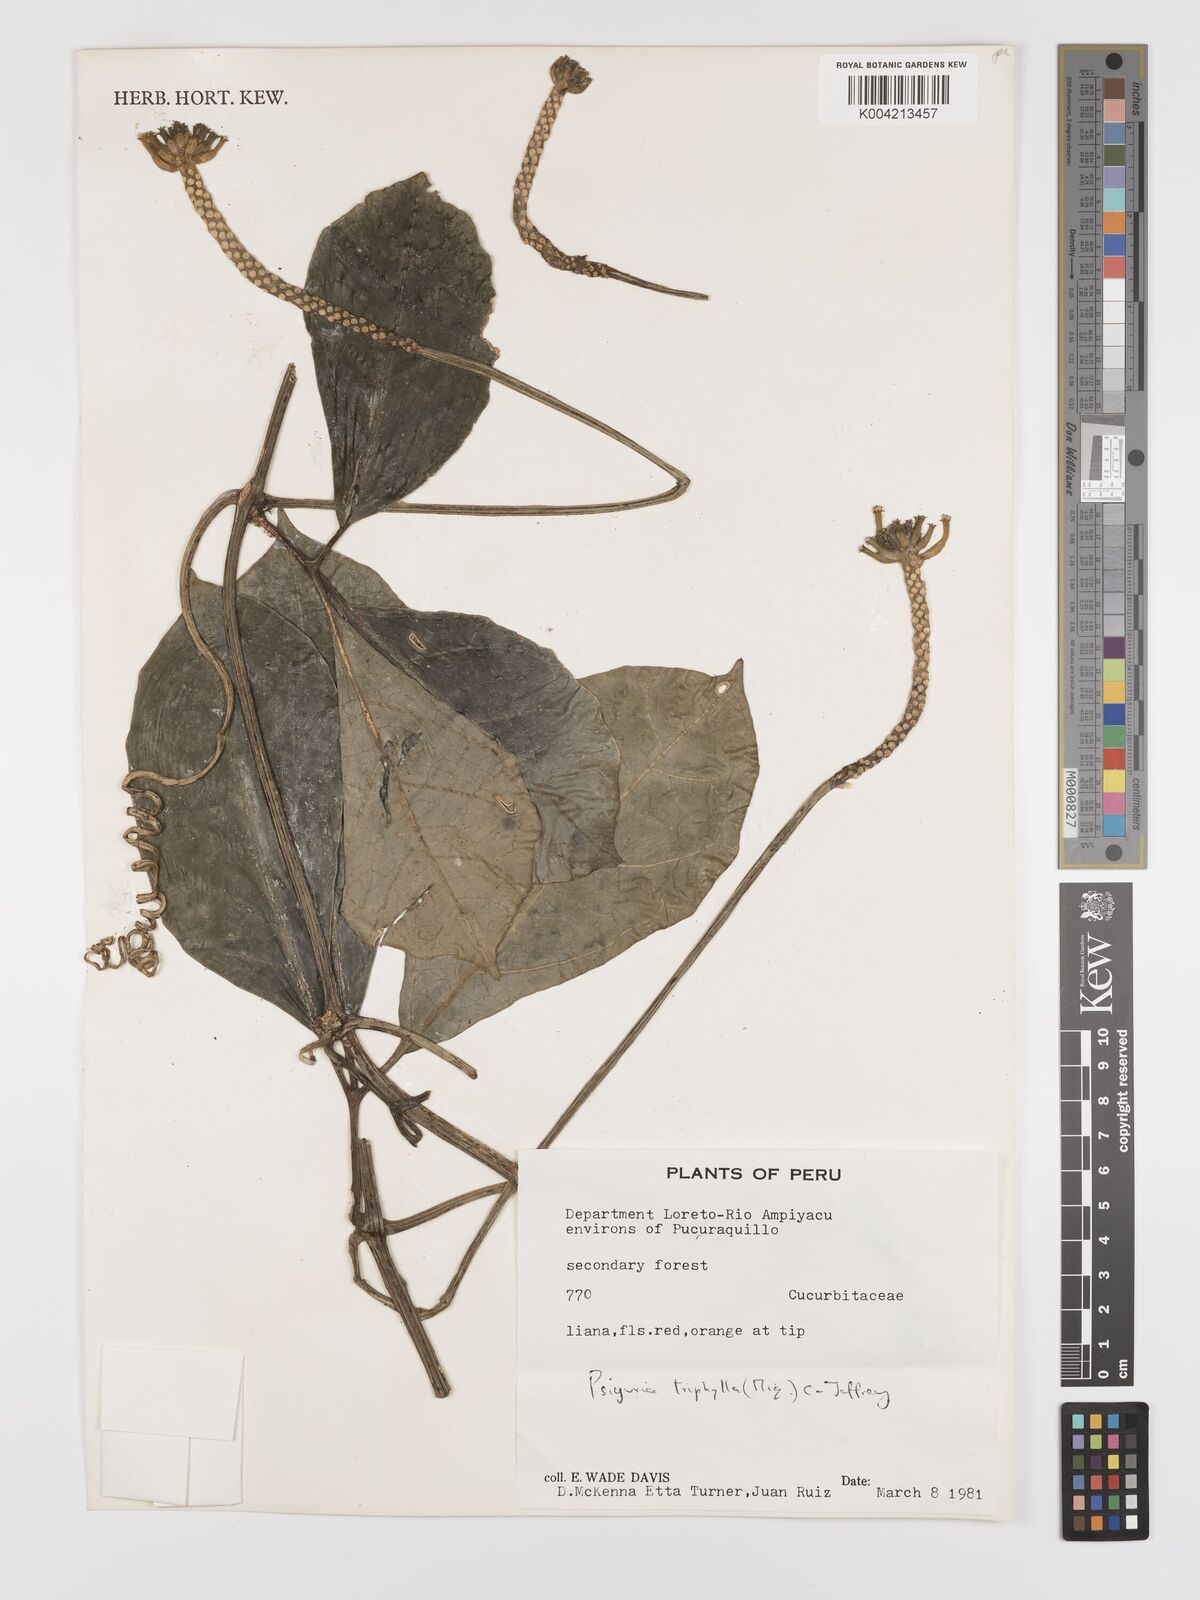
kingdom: Plantae
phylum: Tracheophyta
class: Magnoliopsida
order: Cucurbitales
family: Cucurbitaceae
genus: Psiguria
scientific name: Psiguria triphylla
